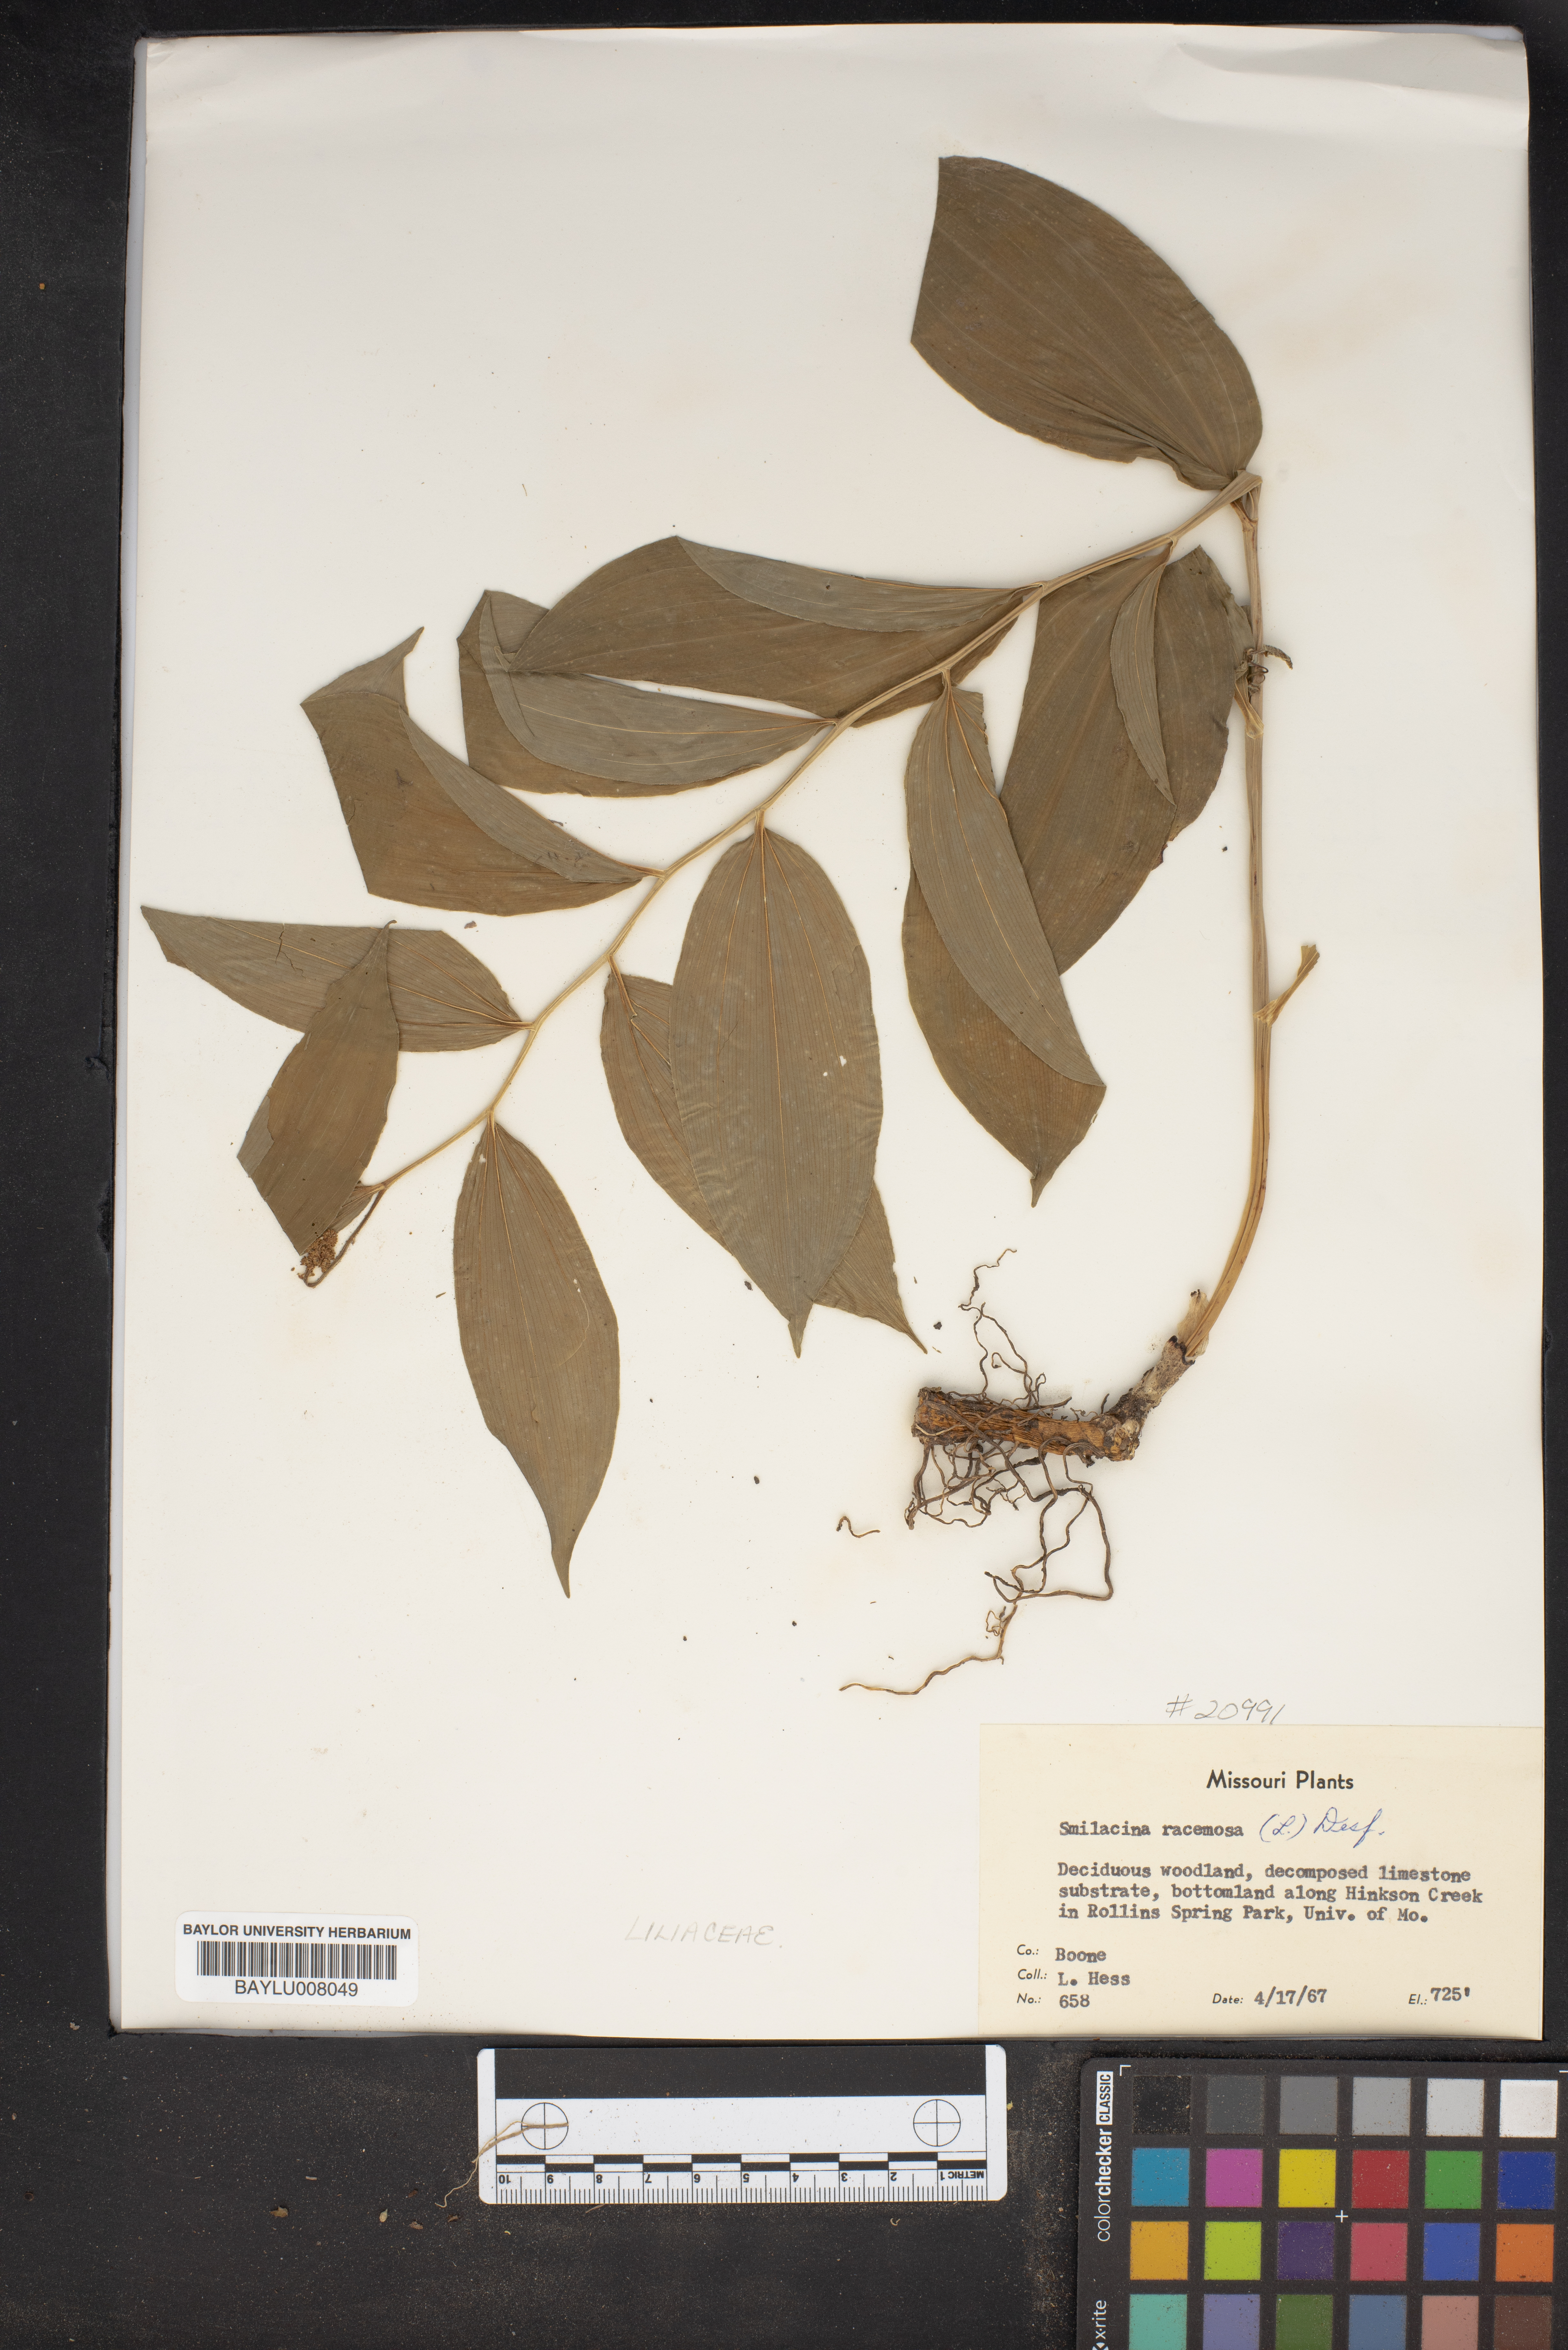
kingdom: Plantae
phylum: Tracheophyta
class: Liliopsida
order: Asparagales
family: Asparagaceae
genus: Maianthemum
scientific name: Maianthemum racemosum
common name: False spikenard
